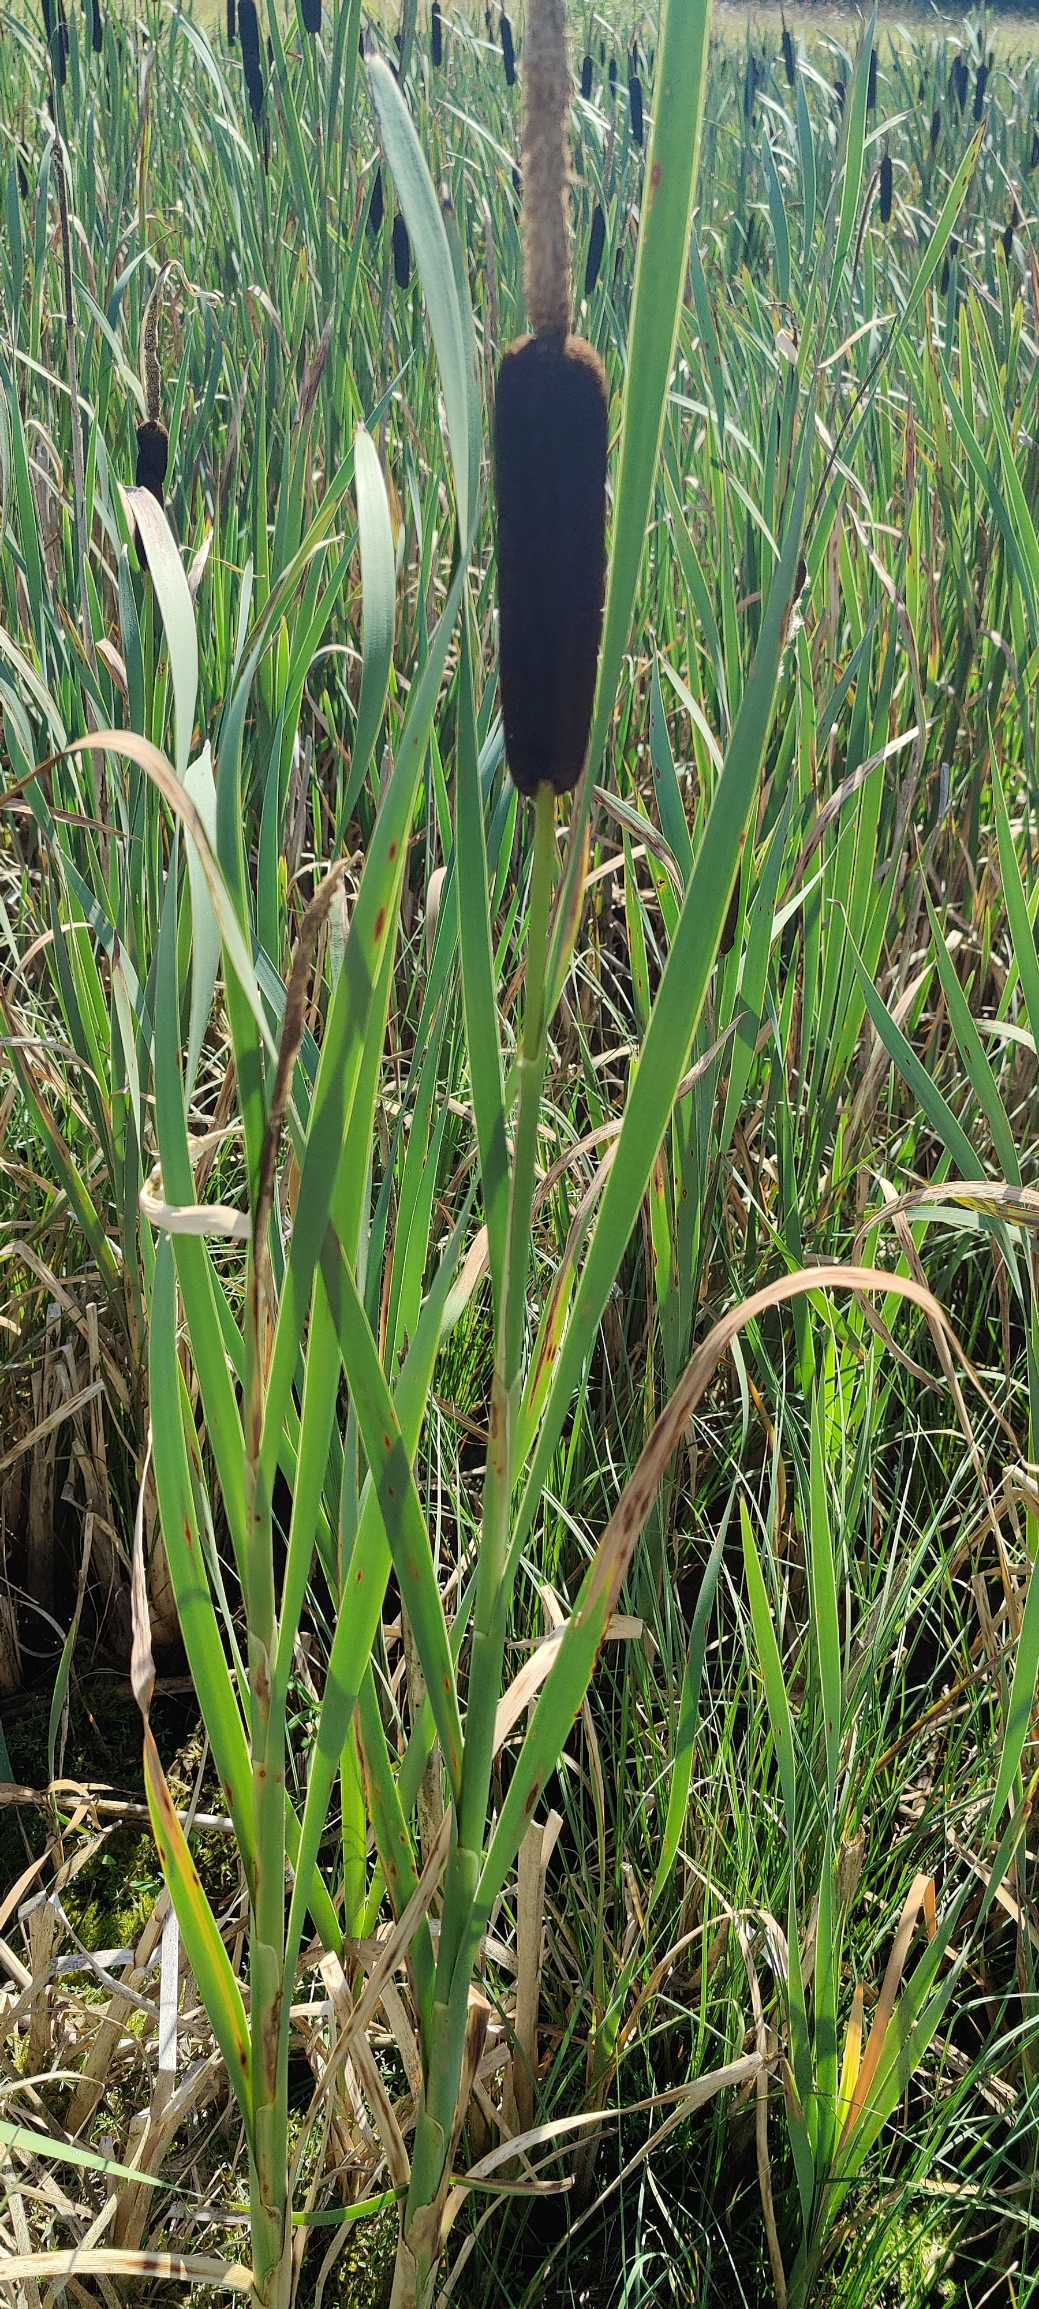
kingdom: Plantae
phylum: Tracheophyta
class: Liliopsida
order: Poales
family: Typhaceae
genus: Typha
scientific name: Typha latifolia
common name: Bredbladet dunhammer
